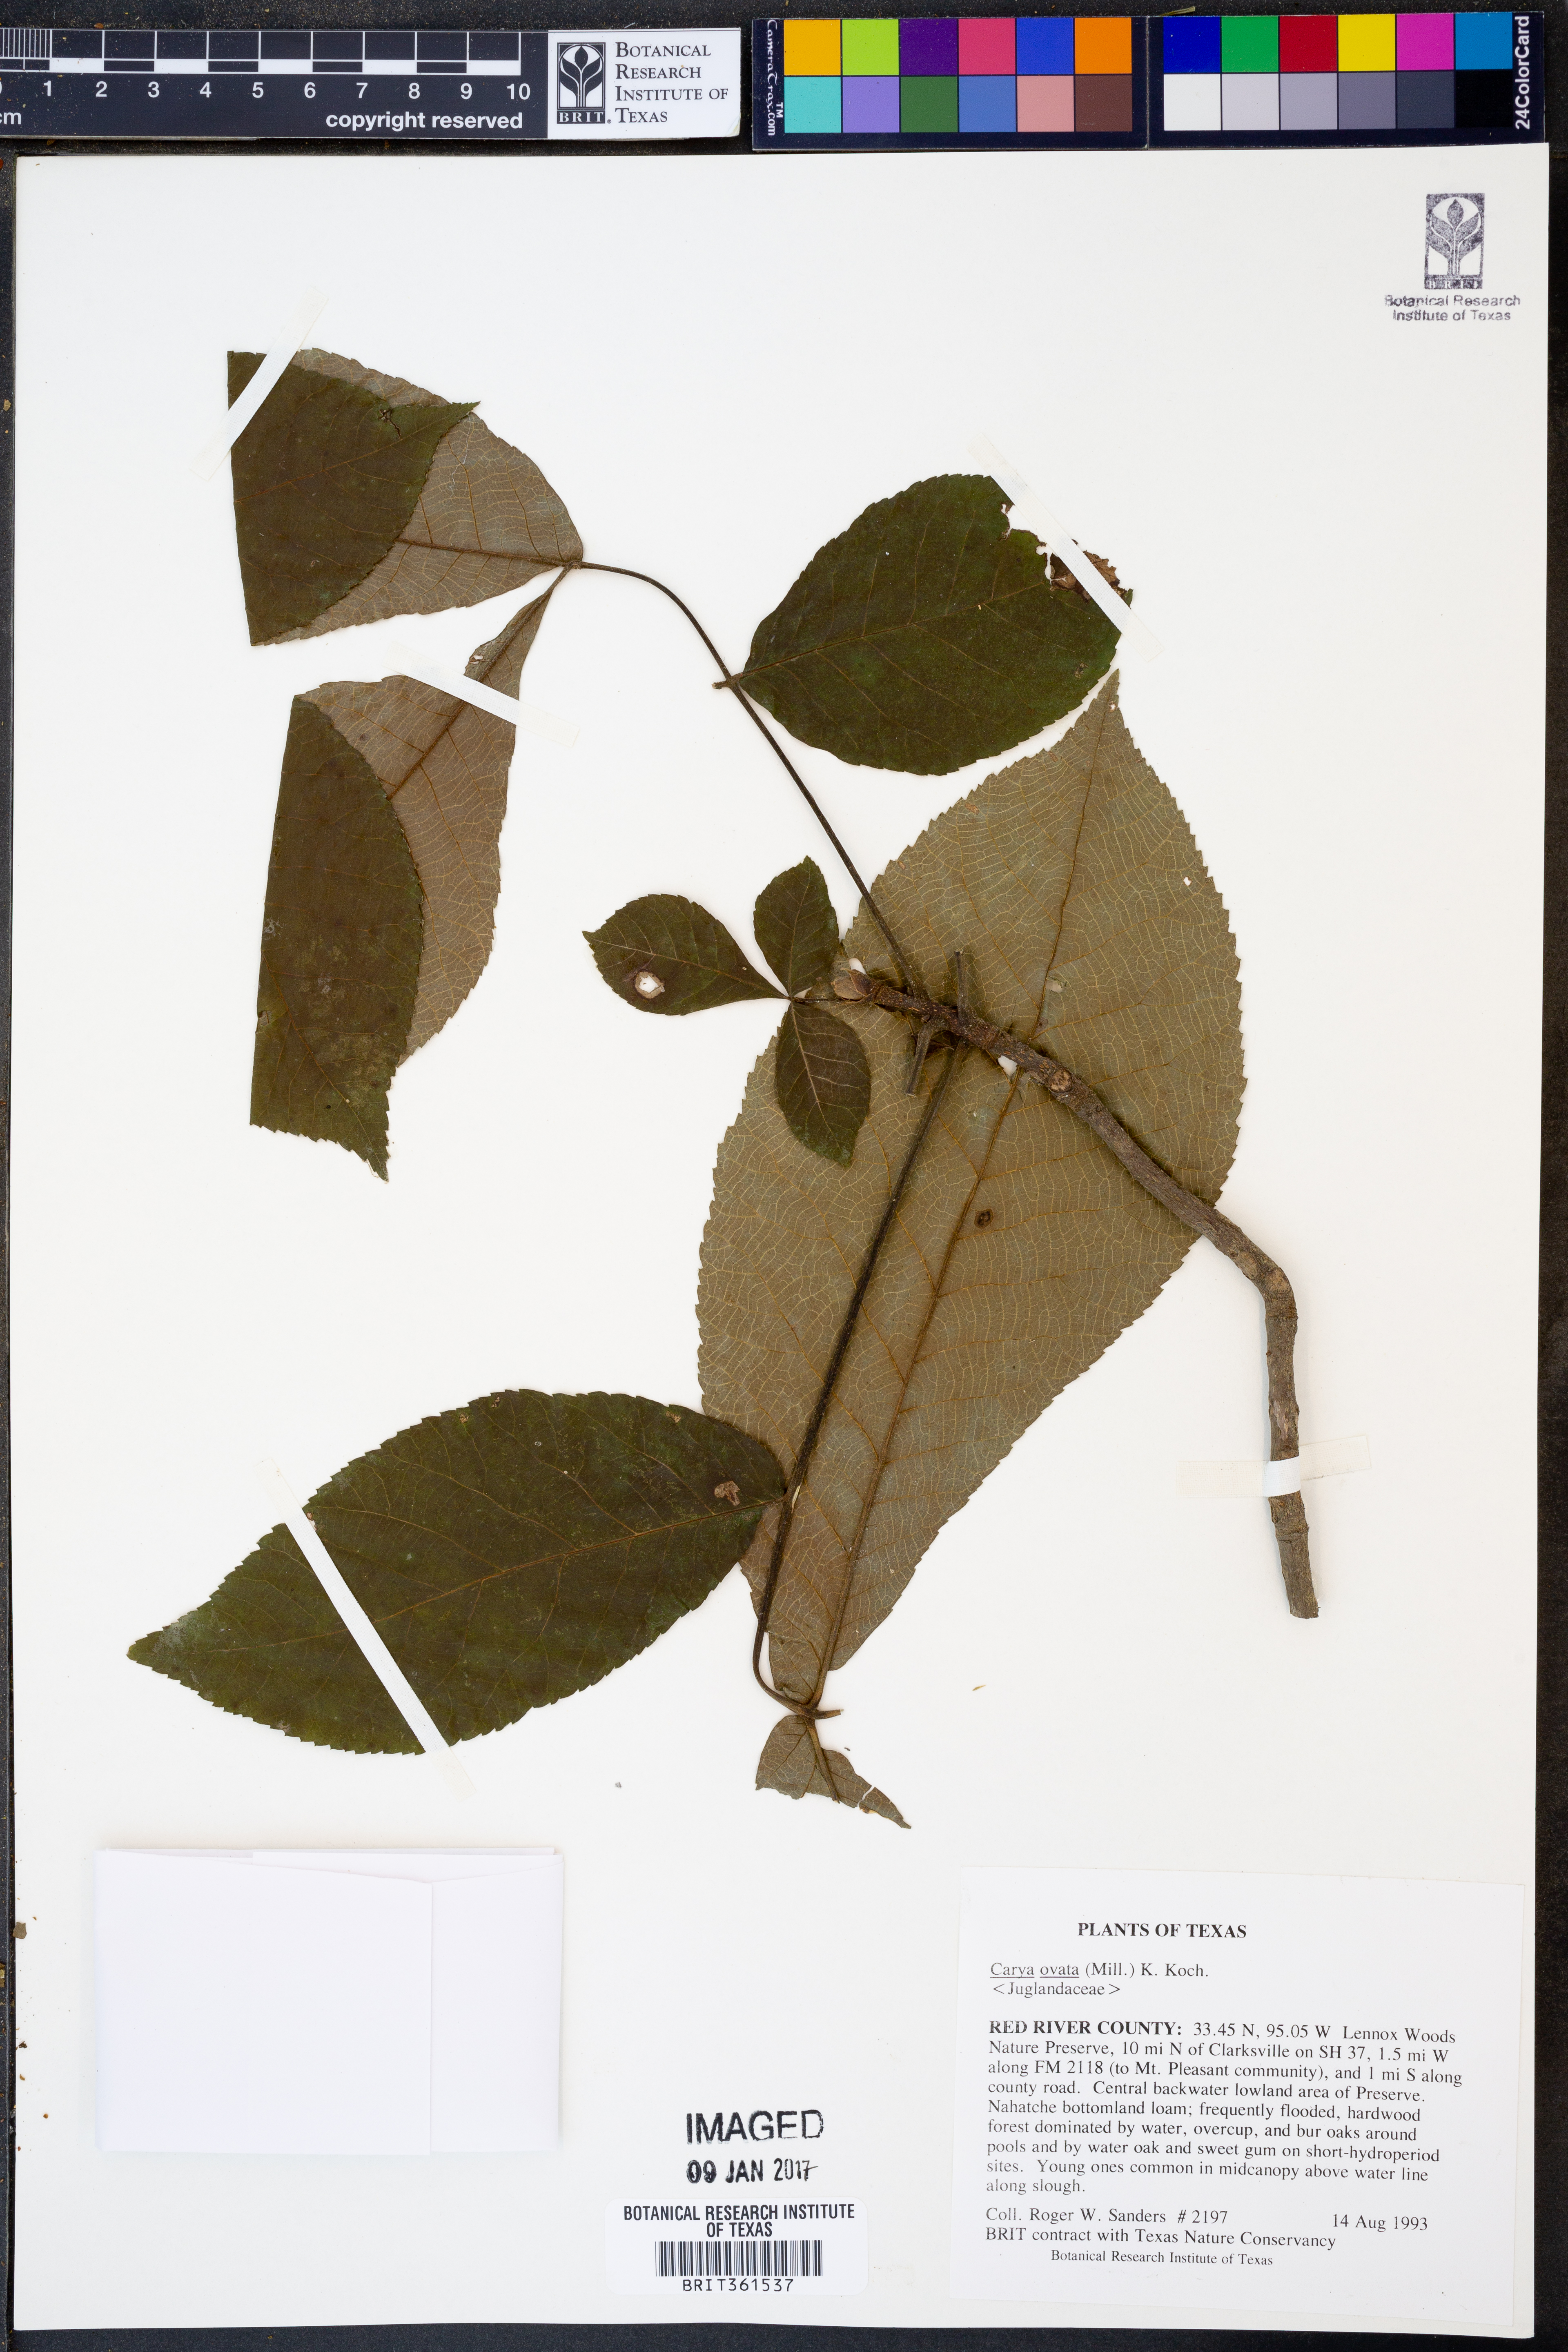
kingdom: Plantae
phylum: Tracheophyta
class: Magnoliopsida
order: Fagales
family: Juglandaceae
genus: Carya
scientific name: Carya ovata
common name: Shagbark hickory
